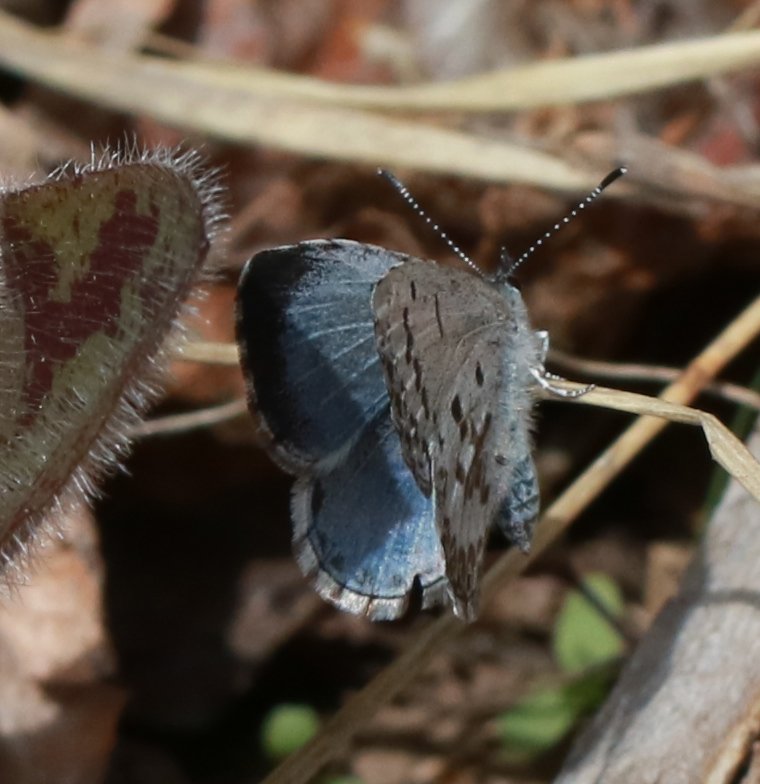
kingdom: Animalia
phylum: Arthropoda
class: Insecta
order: Lepidoptera
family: Lycaenidae
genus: Celastrina
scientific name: Celastrina lucia
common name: Northern Spring Azure
